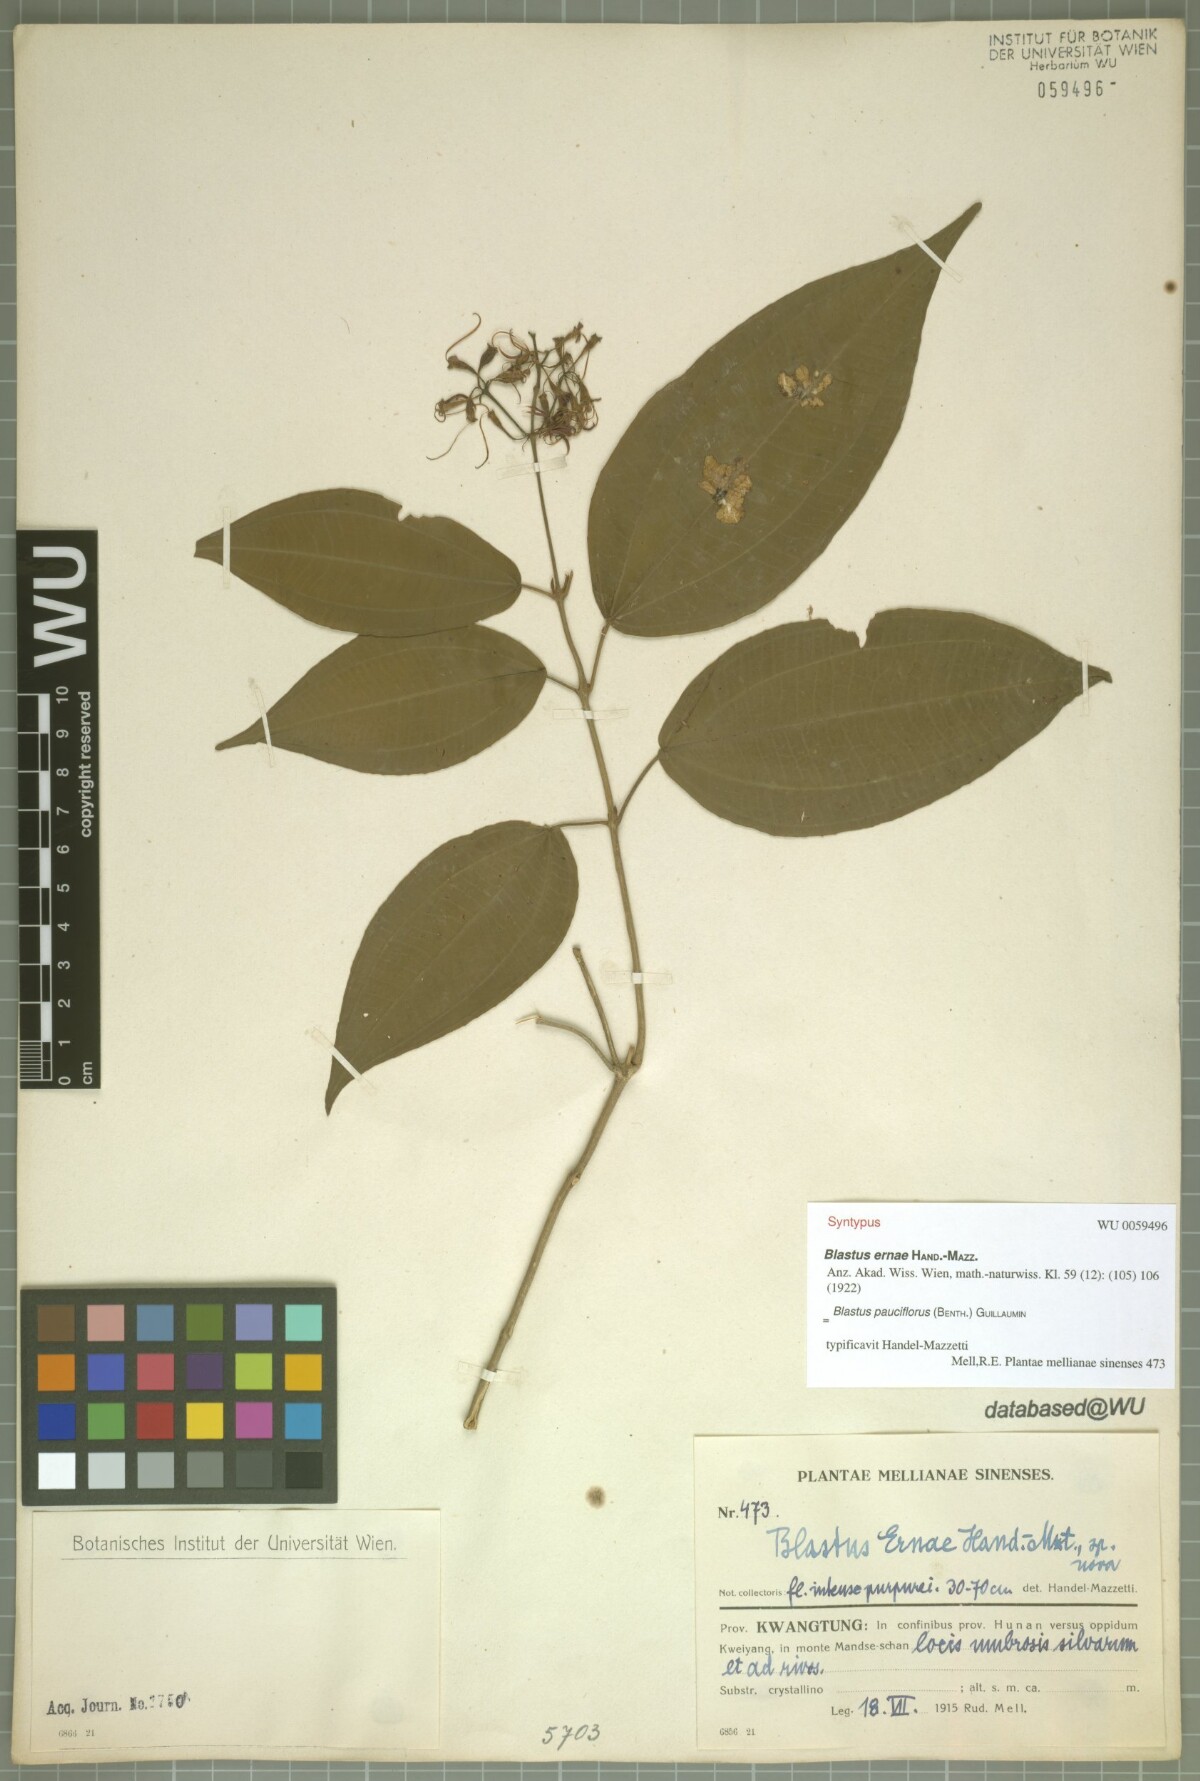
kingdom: Plantae
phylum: Tracheophyta
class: Magnoliopsida
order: Myrtales
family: Melastomataceae
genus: Blastus
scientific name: Blastus pauciflorus
